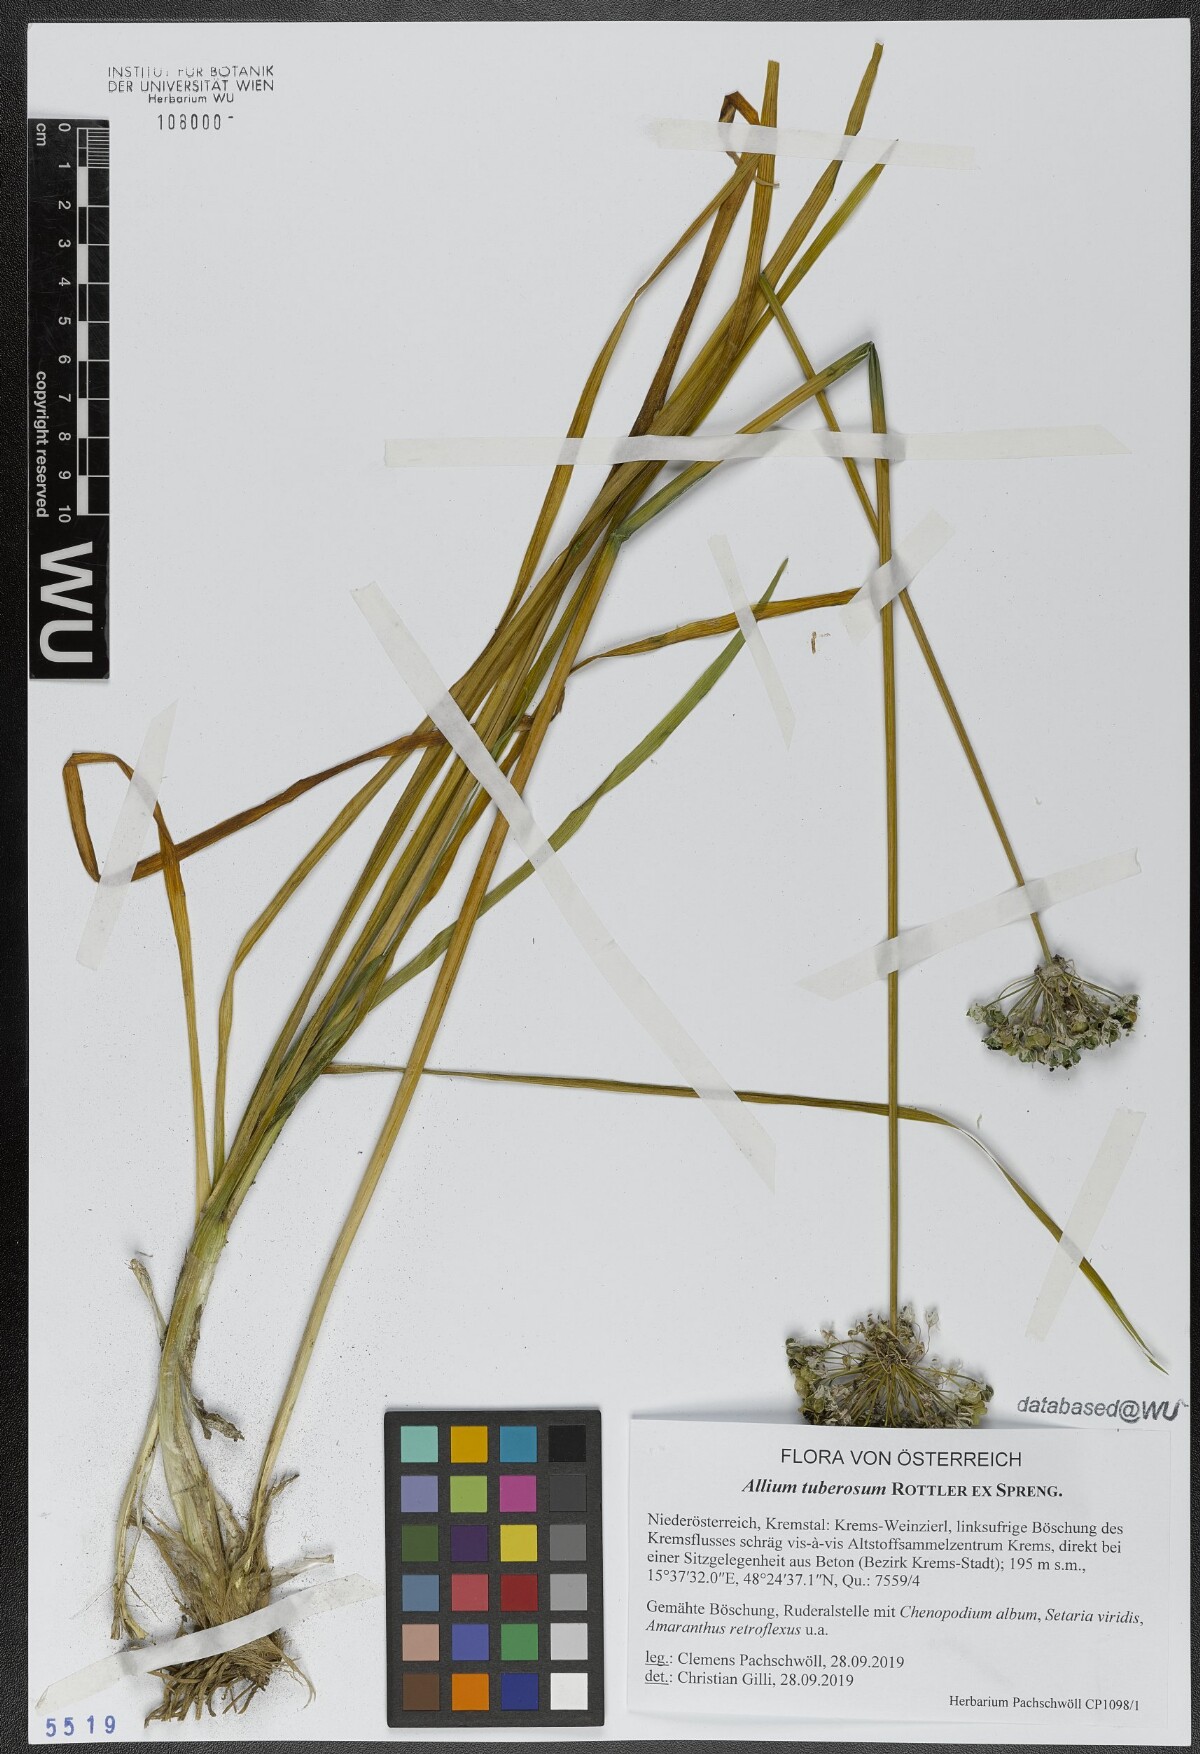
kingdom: Plantae
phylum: Tracheophyta
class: Liliopsida
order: Asparagales
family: Amaryllidaceae
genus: Allium
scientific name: Allium tuberosum
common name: Chinese chives
